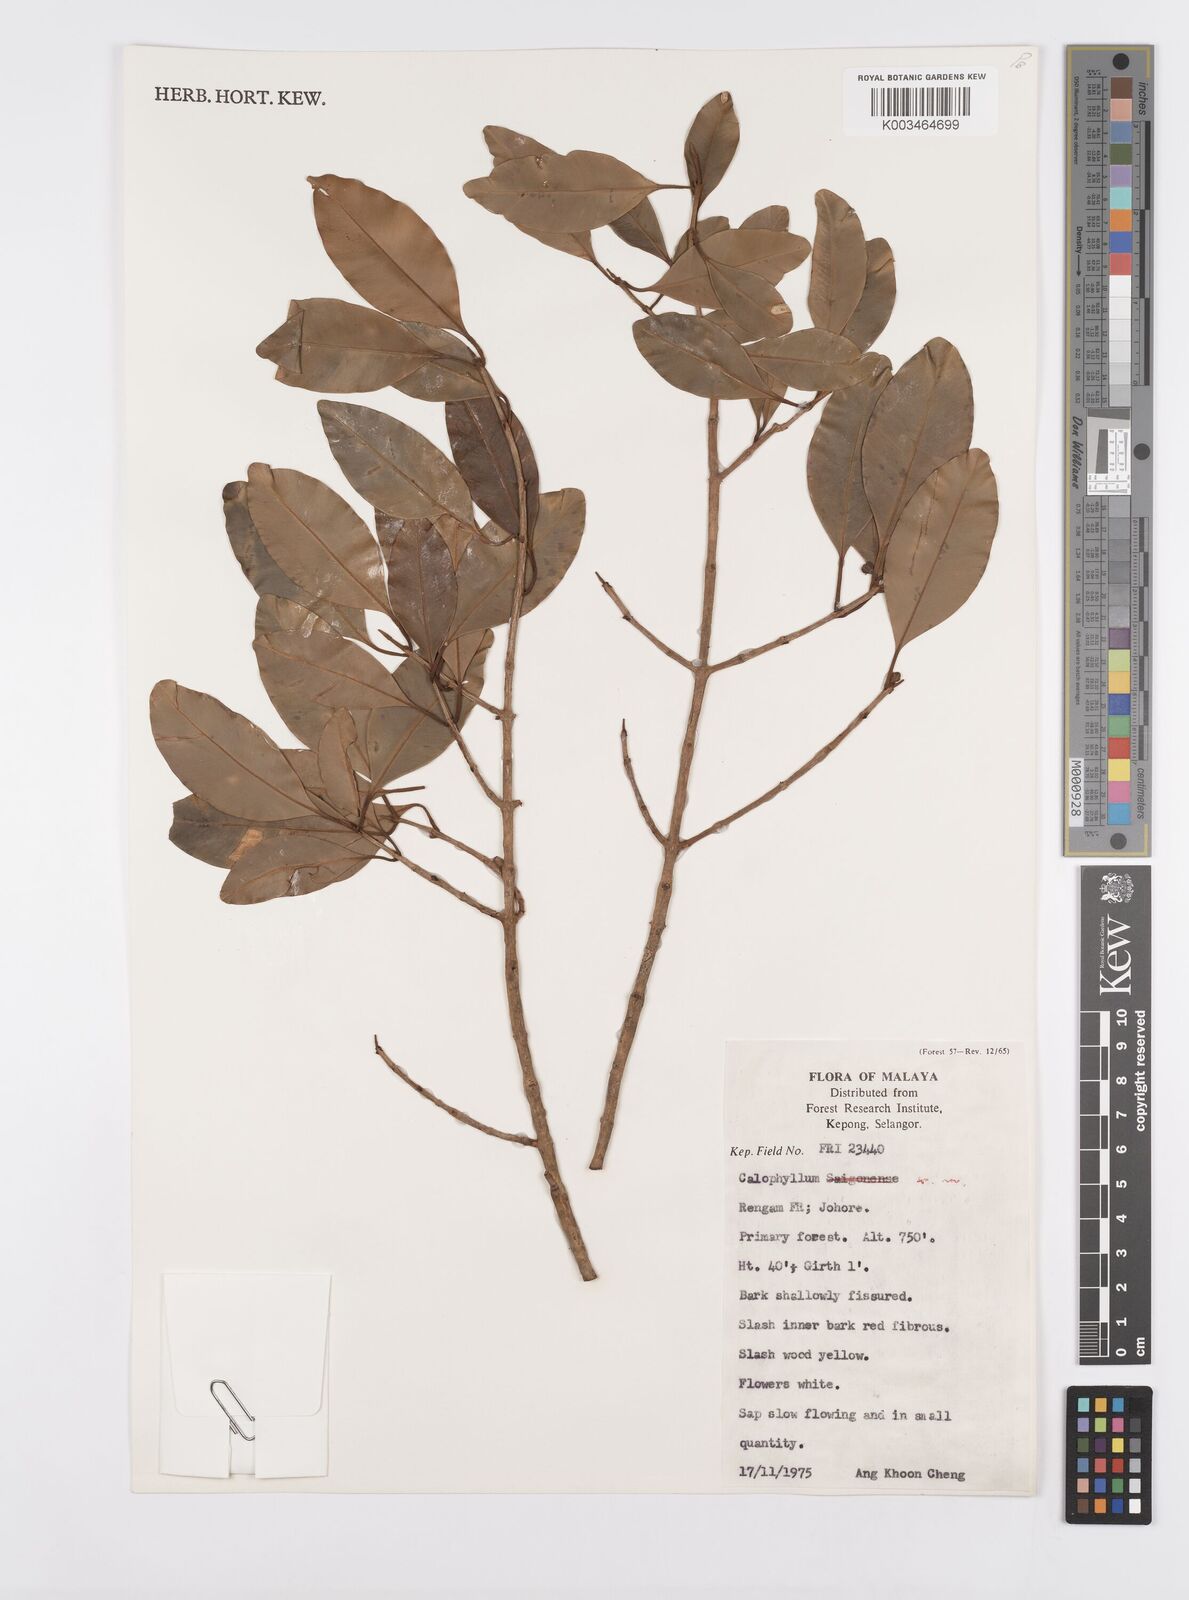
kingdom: Plantae
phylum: Tracheophyta
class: Magnoliopsida
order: Malpighiales
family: Calophyllaceae
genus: Calophyllum
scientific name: Calophyllum
